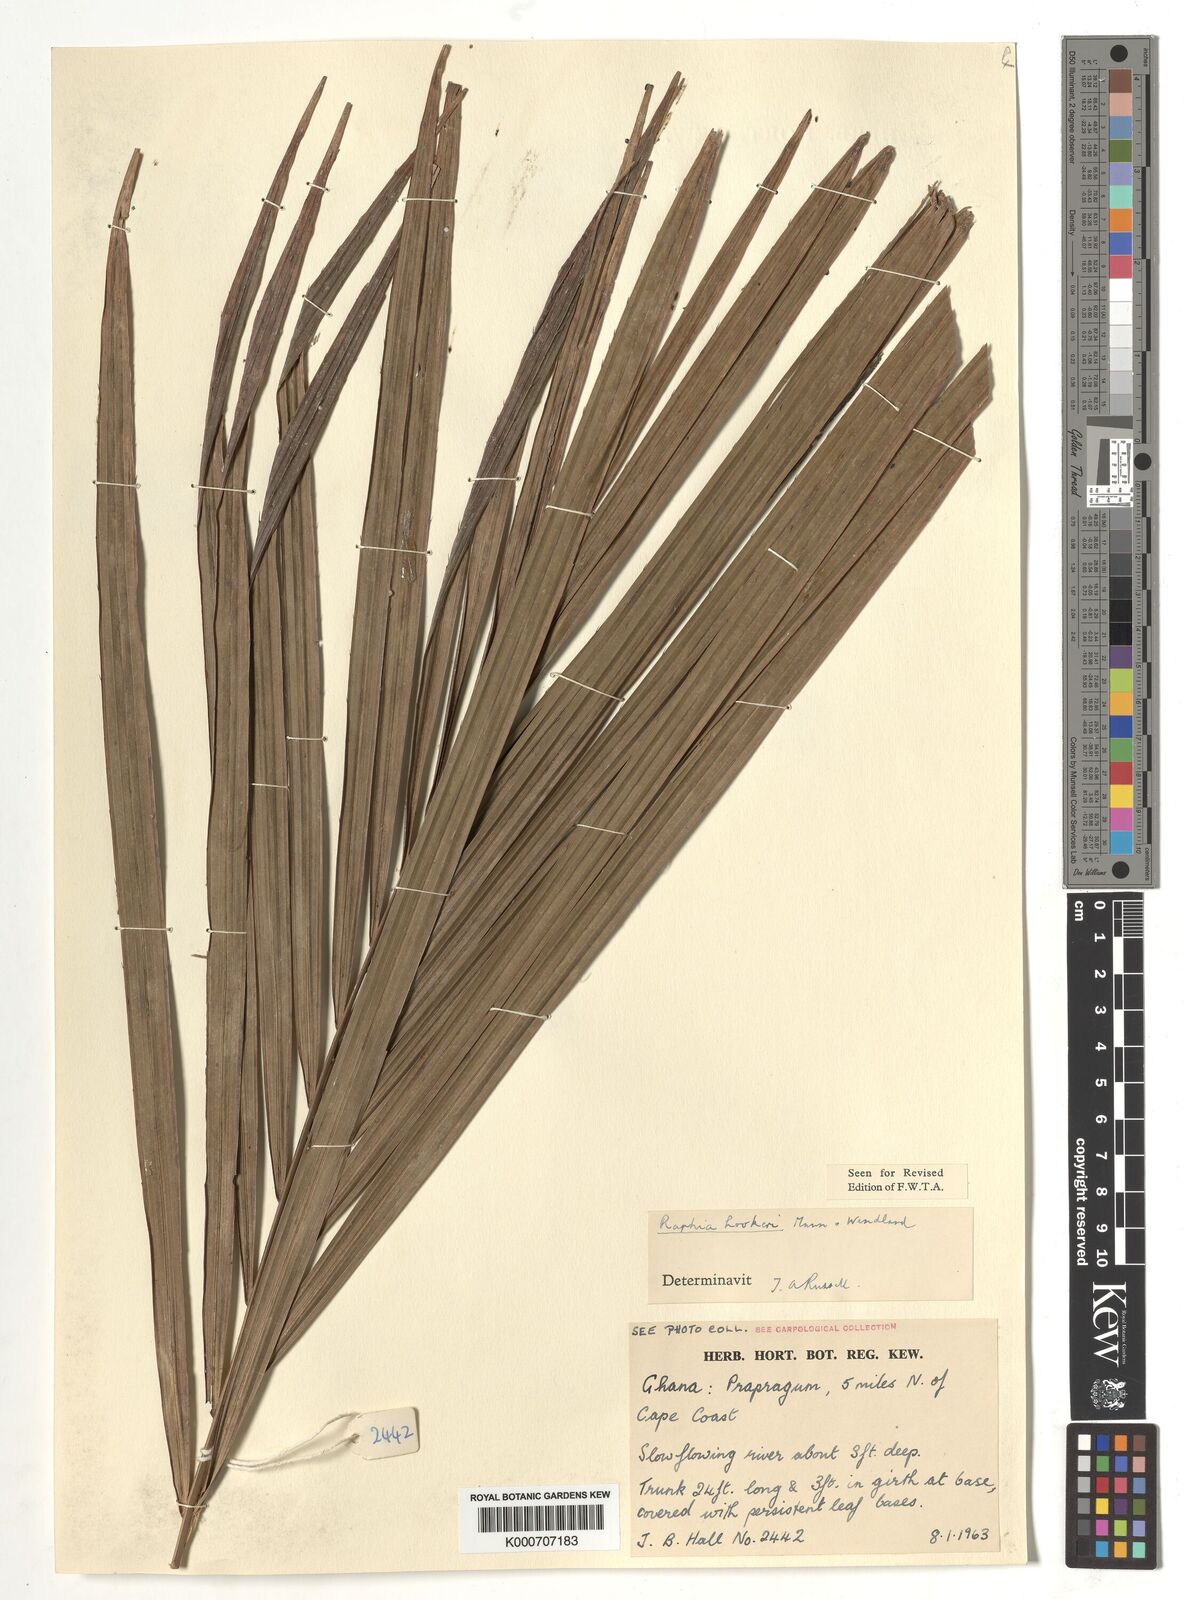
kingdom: Plantae
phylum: Tracheophyta
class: Liliopsida
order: Arecales
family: Arecaceae
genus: Raphia
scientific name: Raphia hookeri
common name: Wine palm
